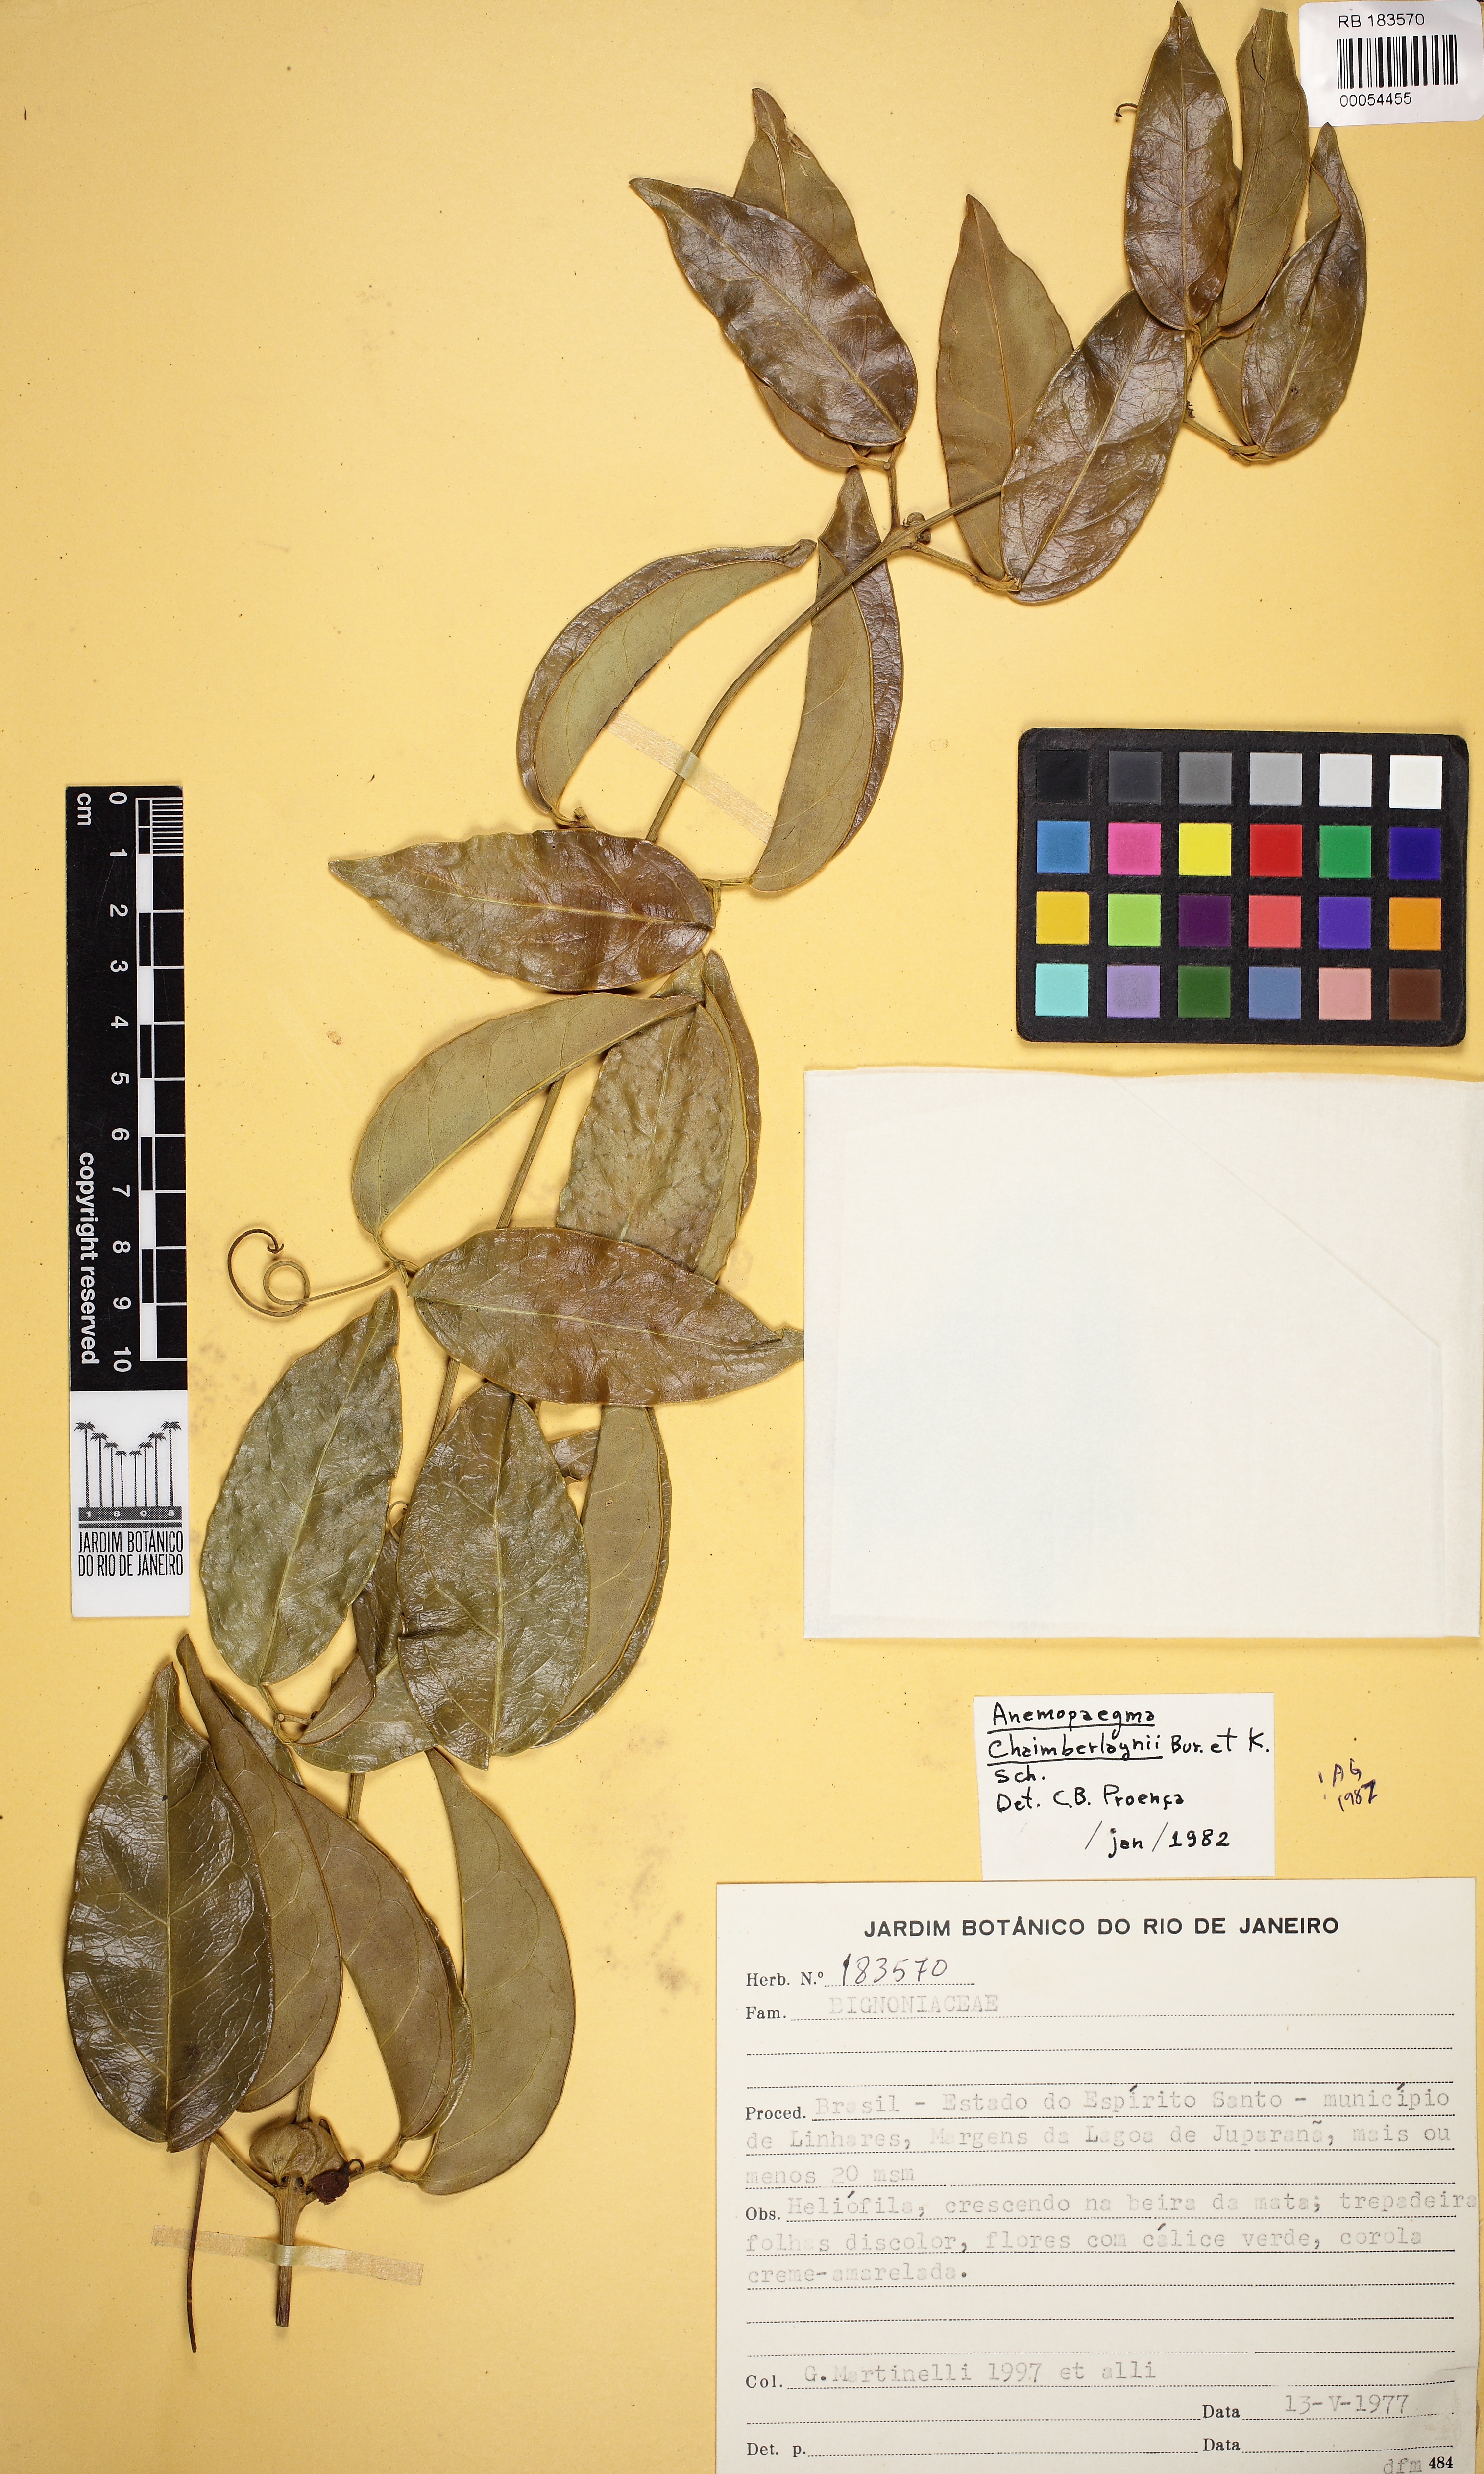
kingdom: Plantae
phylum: Tracheophyta
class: Magnoliopsida
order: Lamiales
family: Bignoniaceae
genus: Anemopaegma
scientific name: Anemopaegma chamberlaynii
